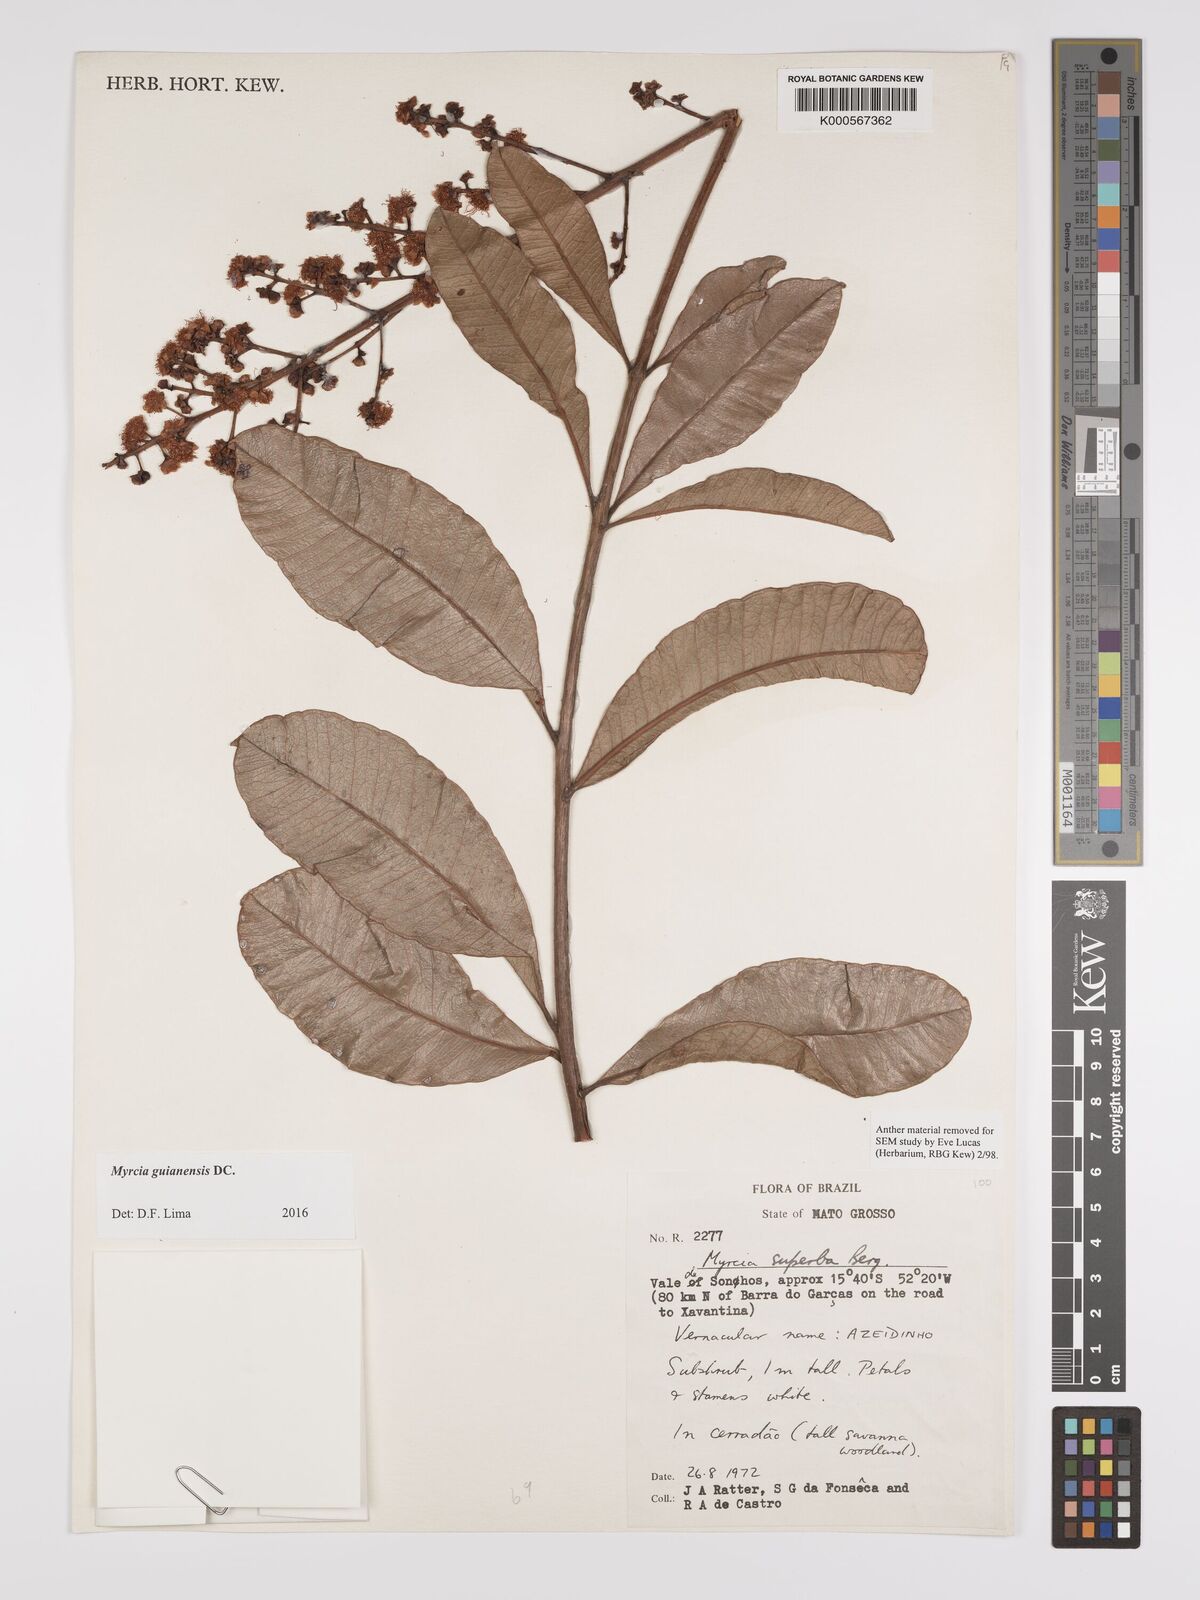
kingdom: Plantae
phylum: Tracheophyta
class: Magnoliopsida
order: Myrtales
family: Myrtaceae
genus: Myrcia
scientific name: Myrcia guianensis
